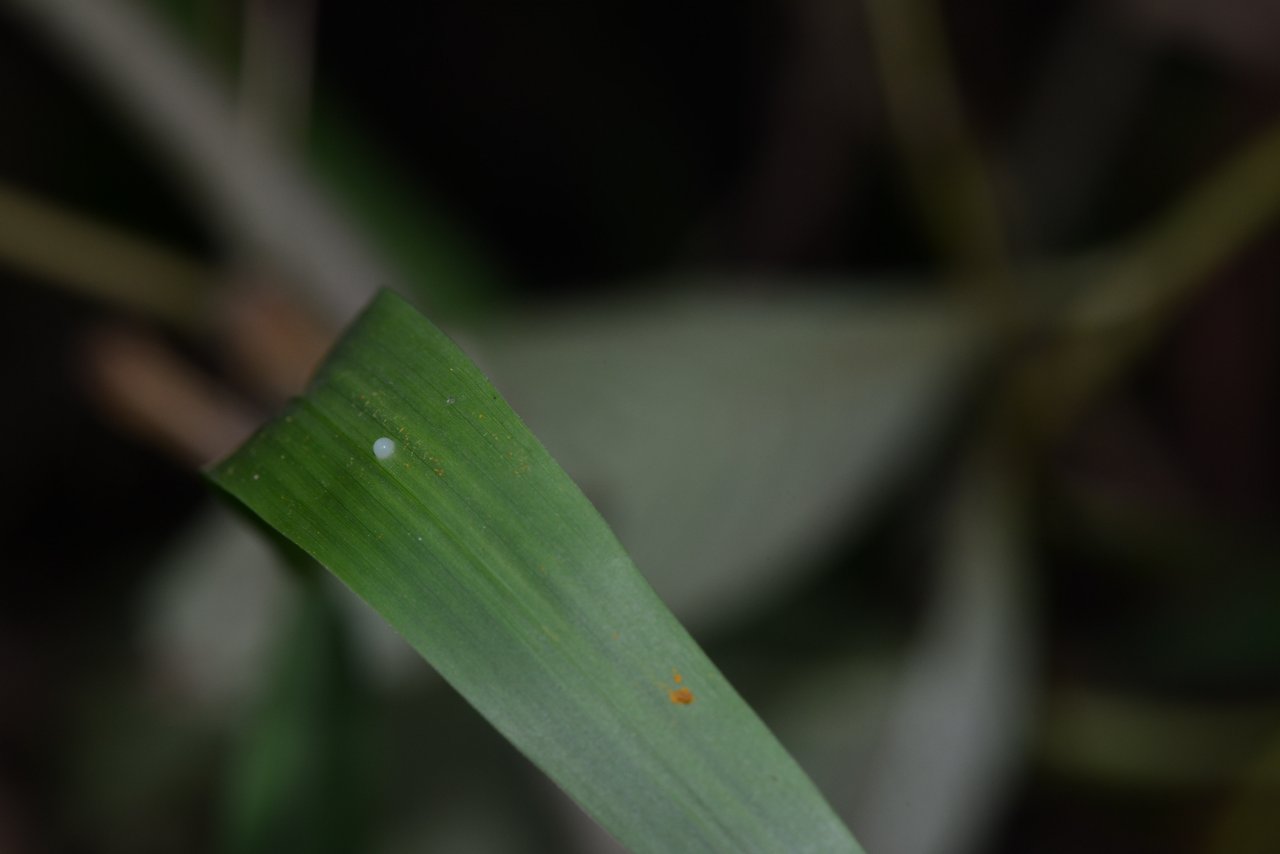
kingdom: Animalia
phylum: Arthropoda
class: Insecta
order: Lepidoptera
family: Hesperiidae
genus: Lerema
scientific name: Lerema accius
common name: Clouded Skipper
